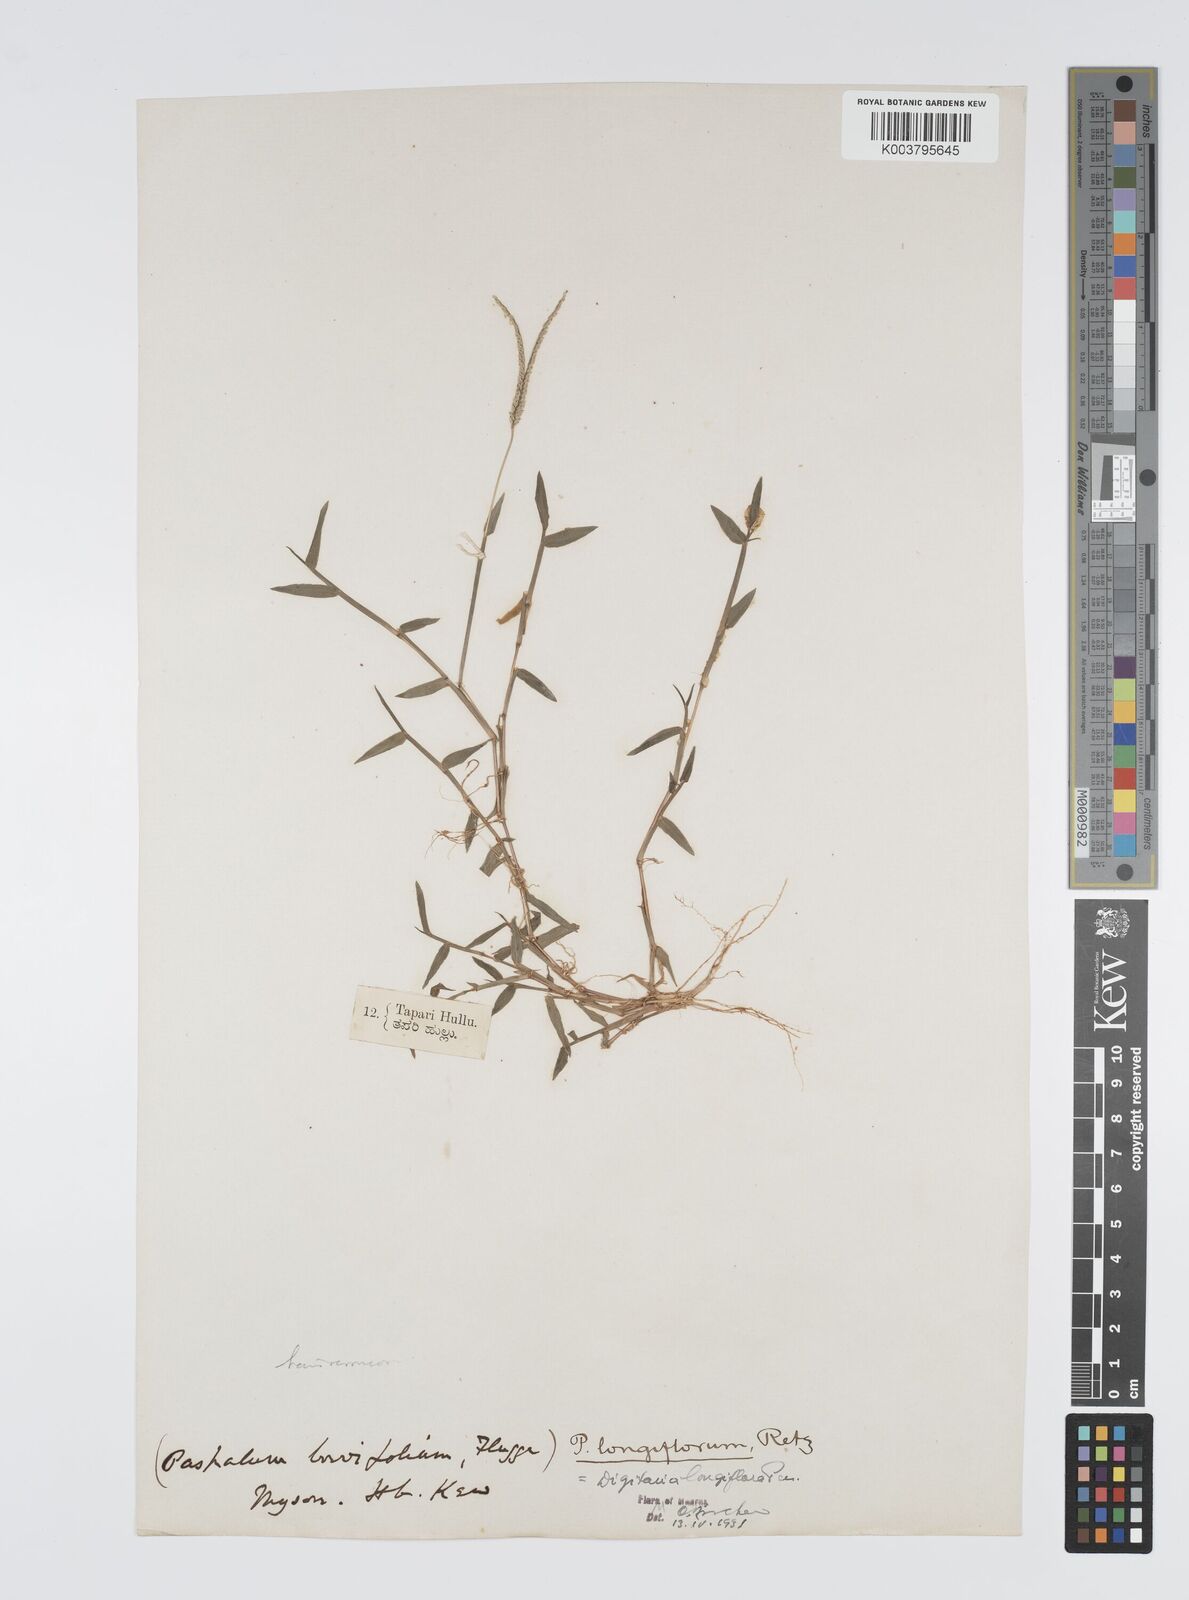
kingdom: Plantae
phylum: Tracheophyta
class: Liliopsida
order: Poales
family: Poaceae
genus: Digitaria
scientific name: Digitaria longiflora
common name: Wire crabgrass
